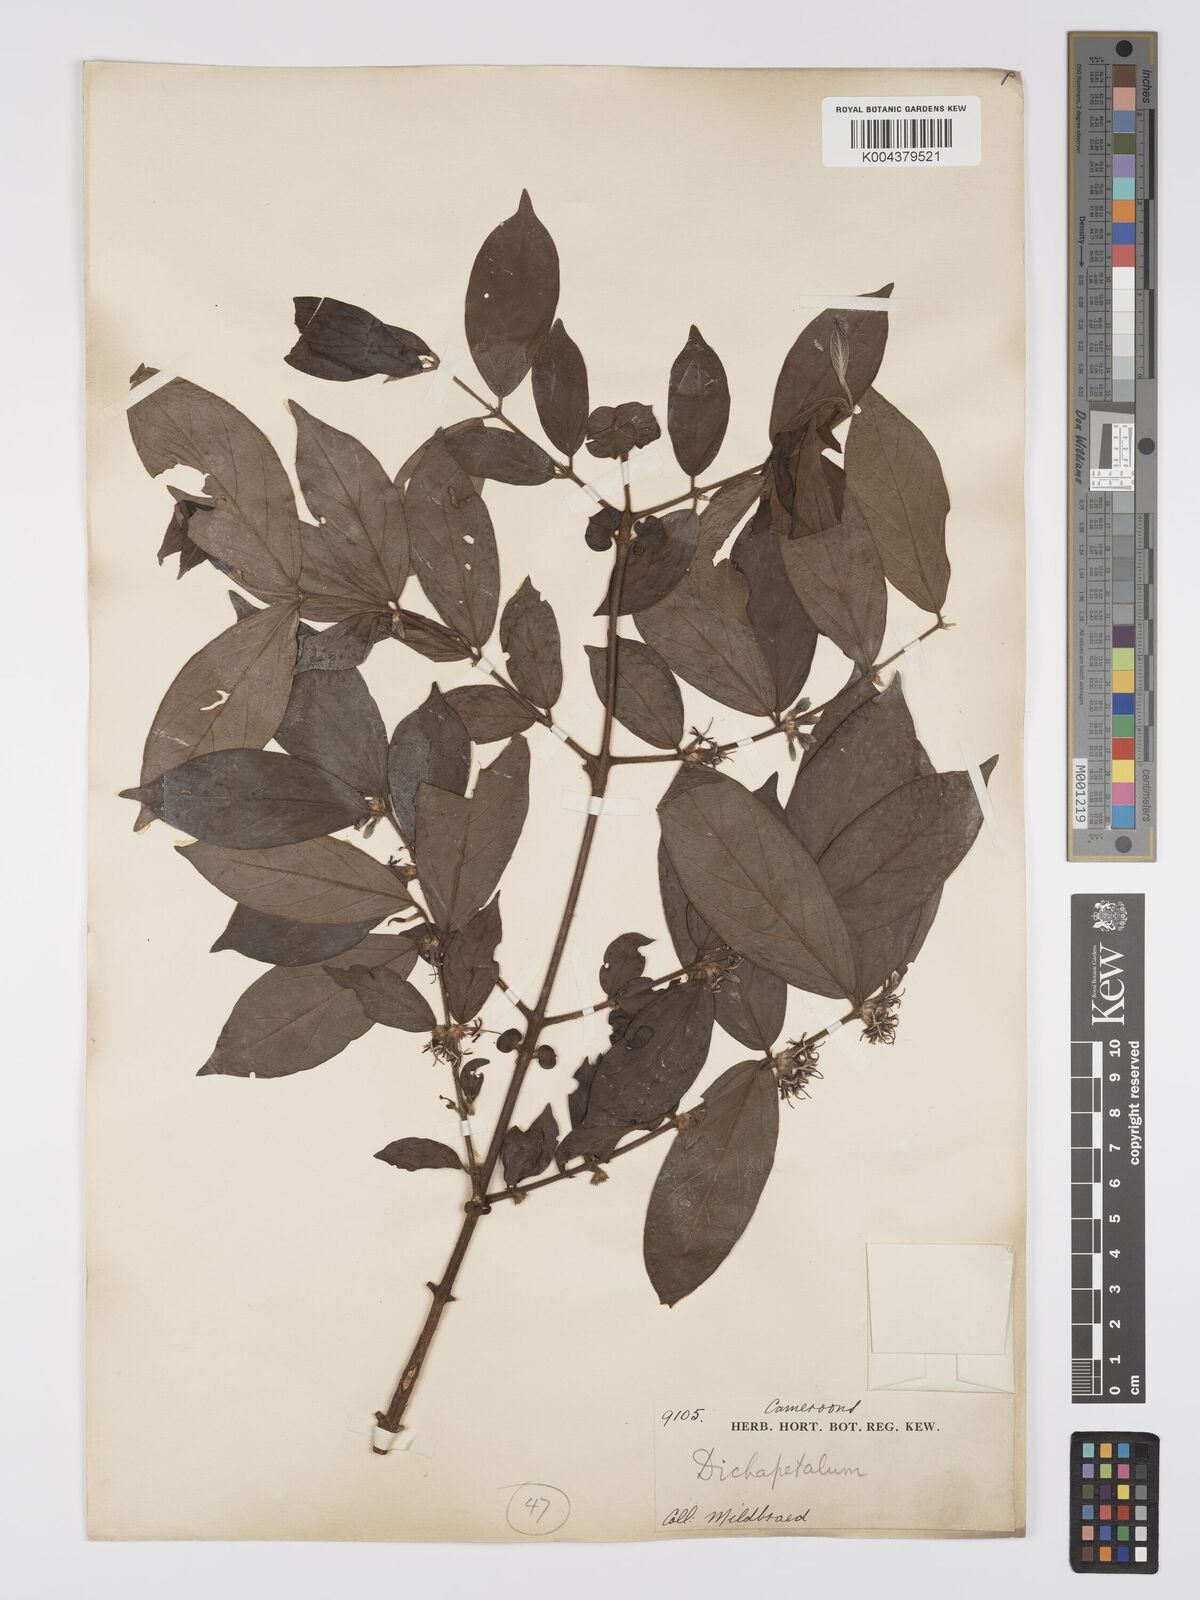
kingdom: Plantae
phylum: Tracheophyta
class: Magnoliopsida
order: Gentianales
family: Rubiaceae
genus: Cremaspora
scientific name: Cremaspora triflora
